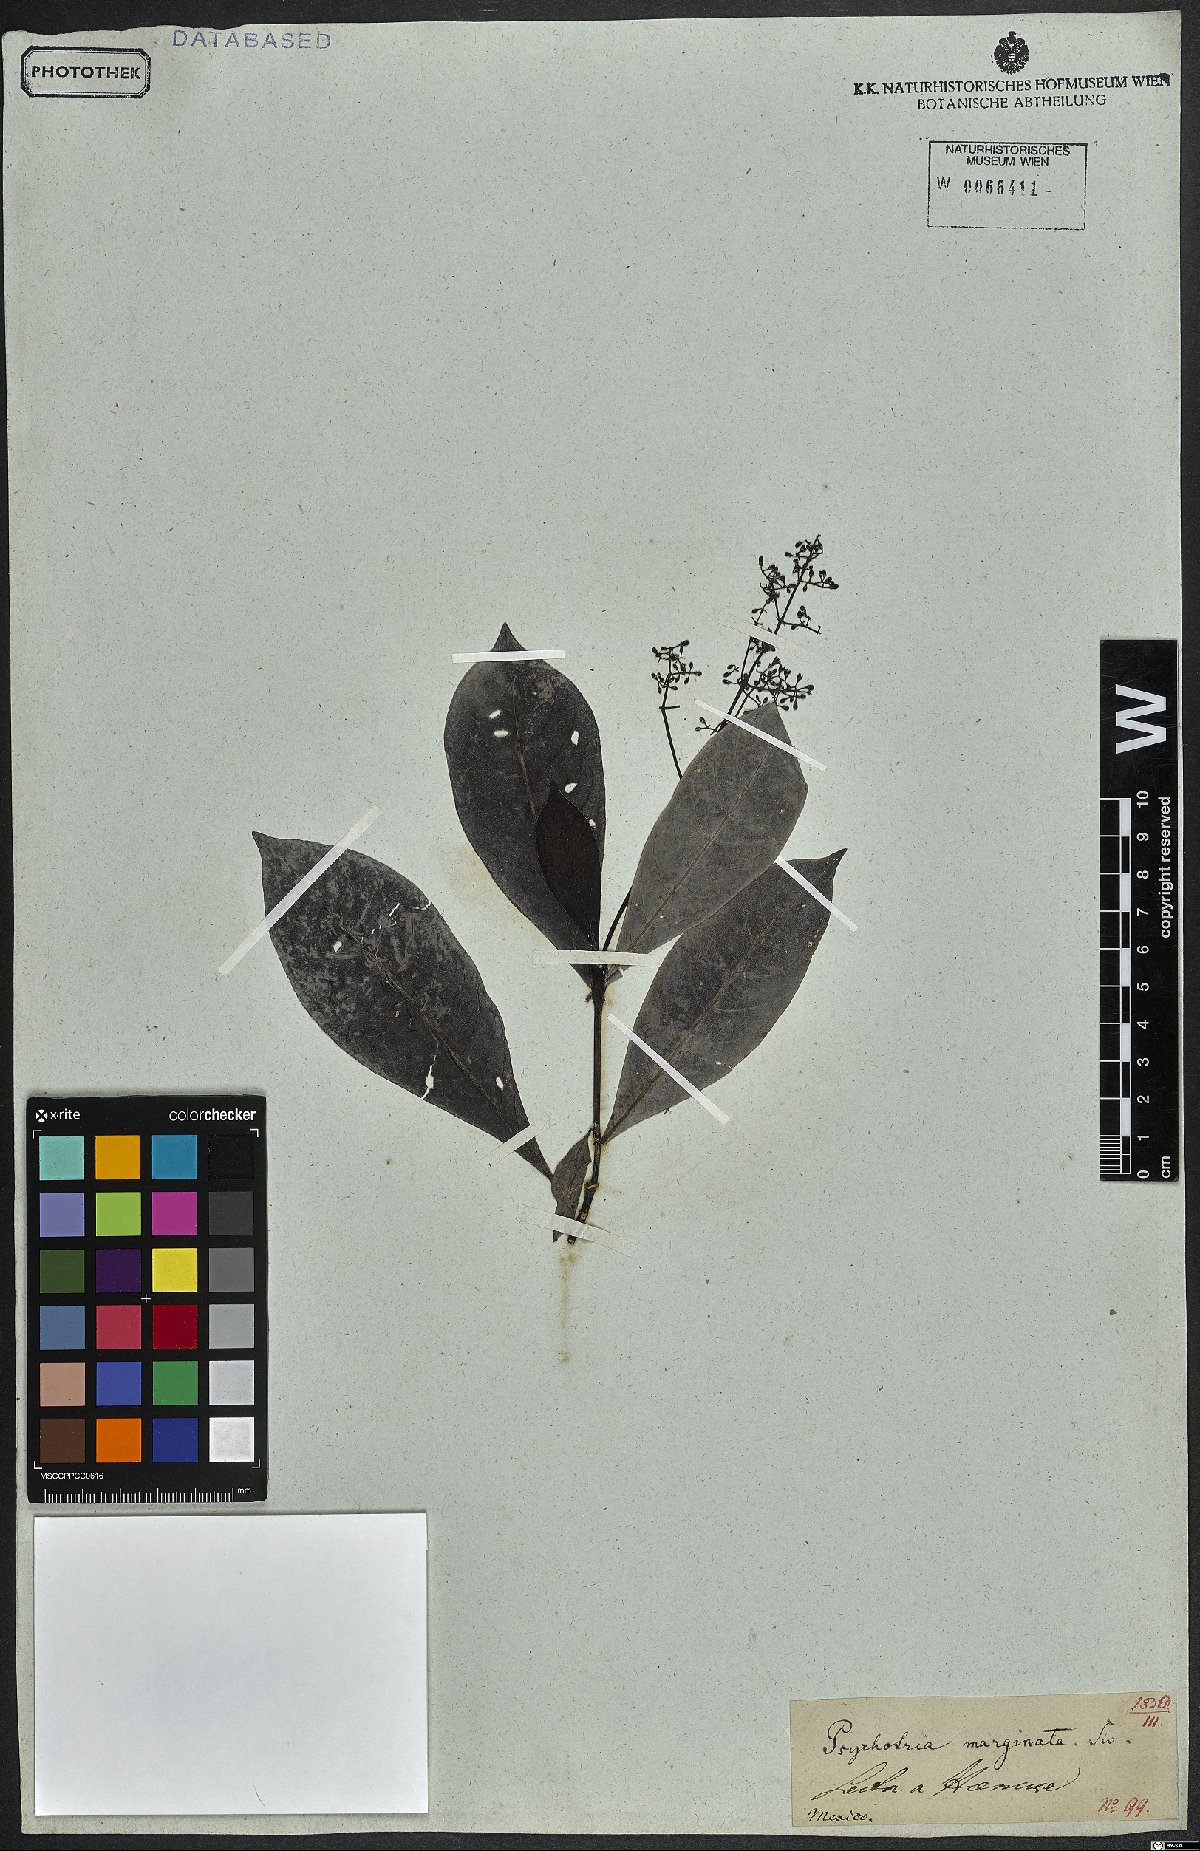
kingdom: Plantae
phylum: Tracheophyta
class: Magnoliopsida
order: Gentianales
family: Rubiaceae
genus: Psychotria
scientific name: Psychotria marginata
